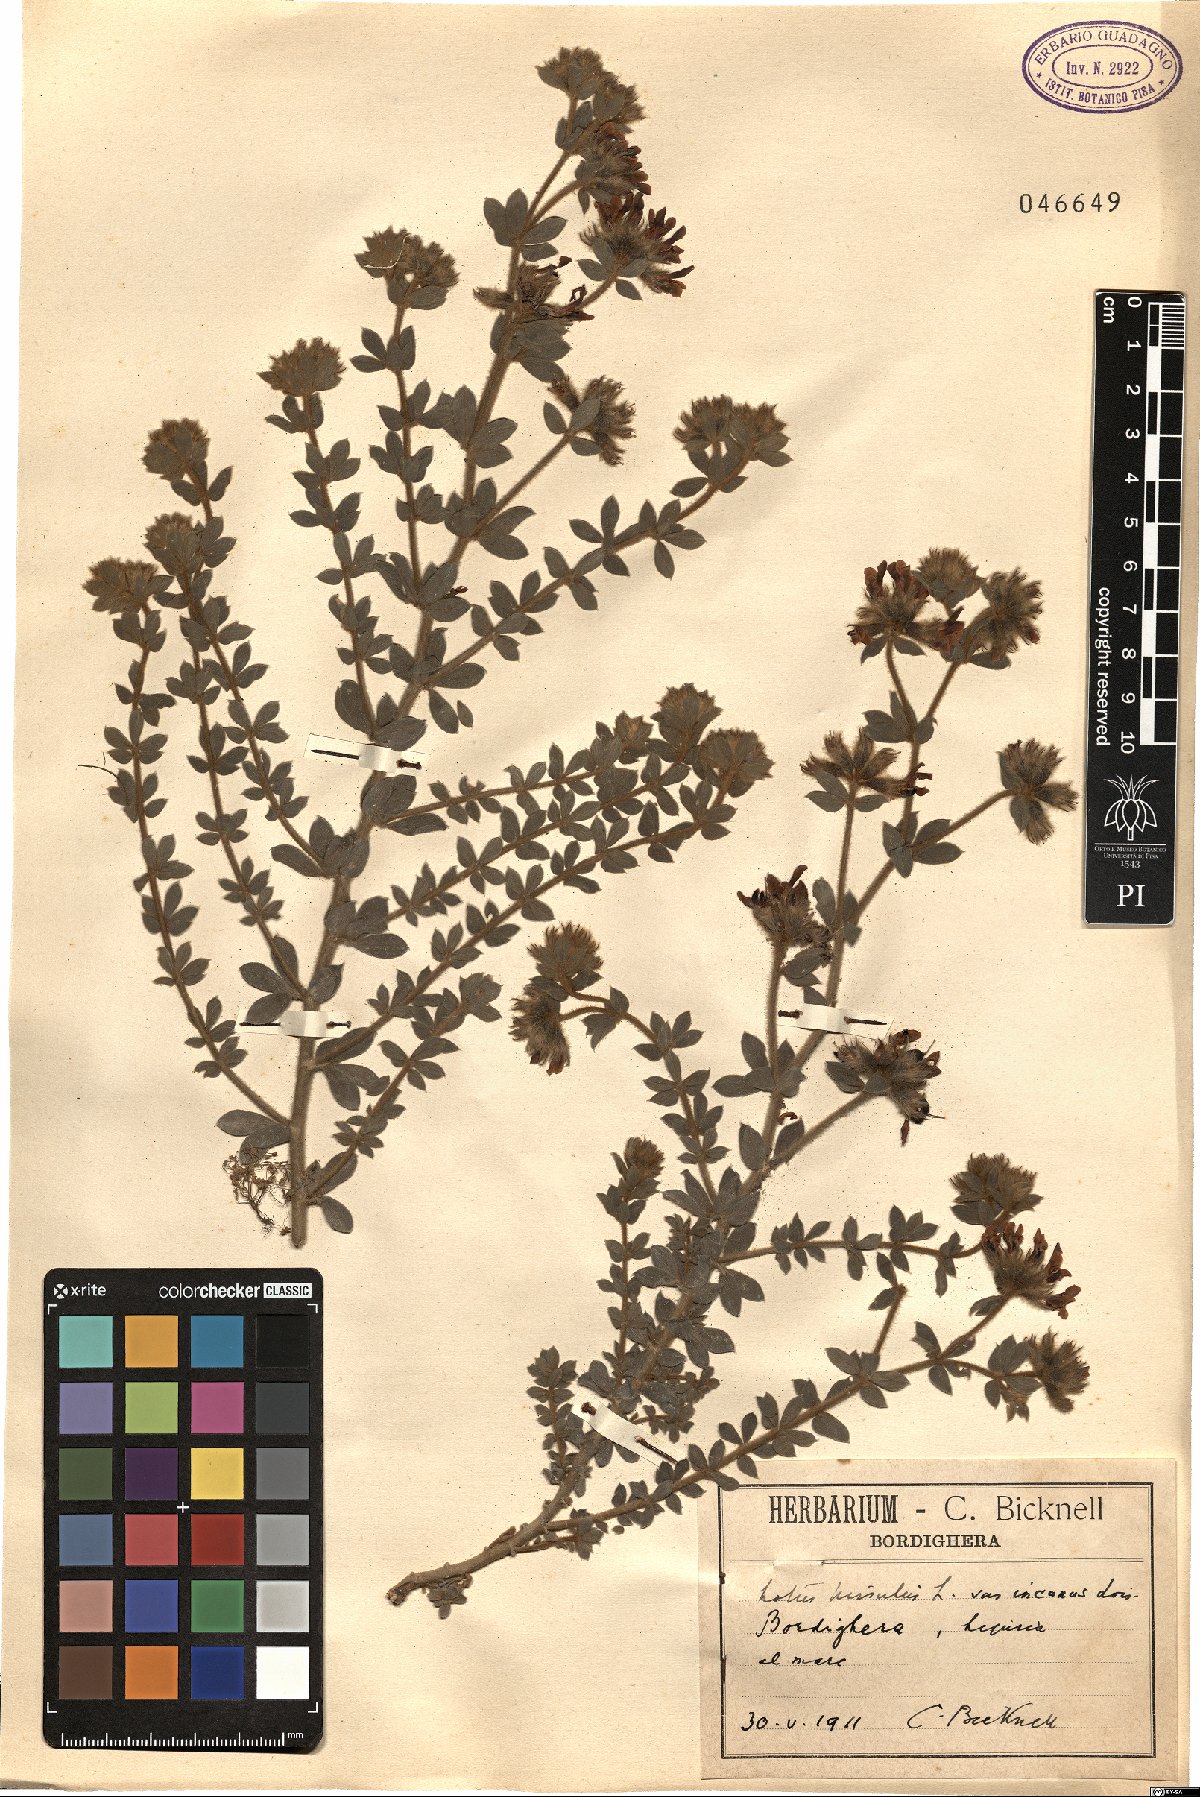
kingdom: Plantae
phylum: Tracheophyta
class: Magnoliopsida
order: Fabales
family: Fabaceae
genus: Lotus
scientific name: Lotus hirsutus
